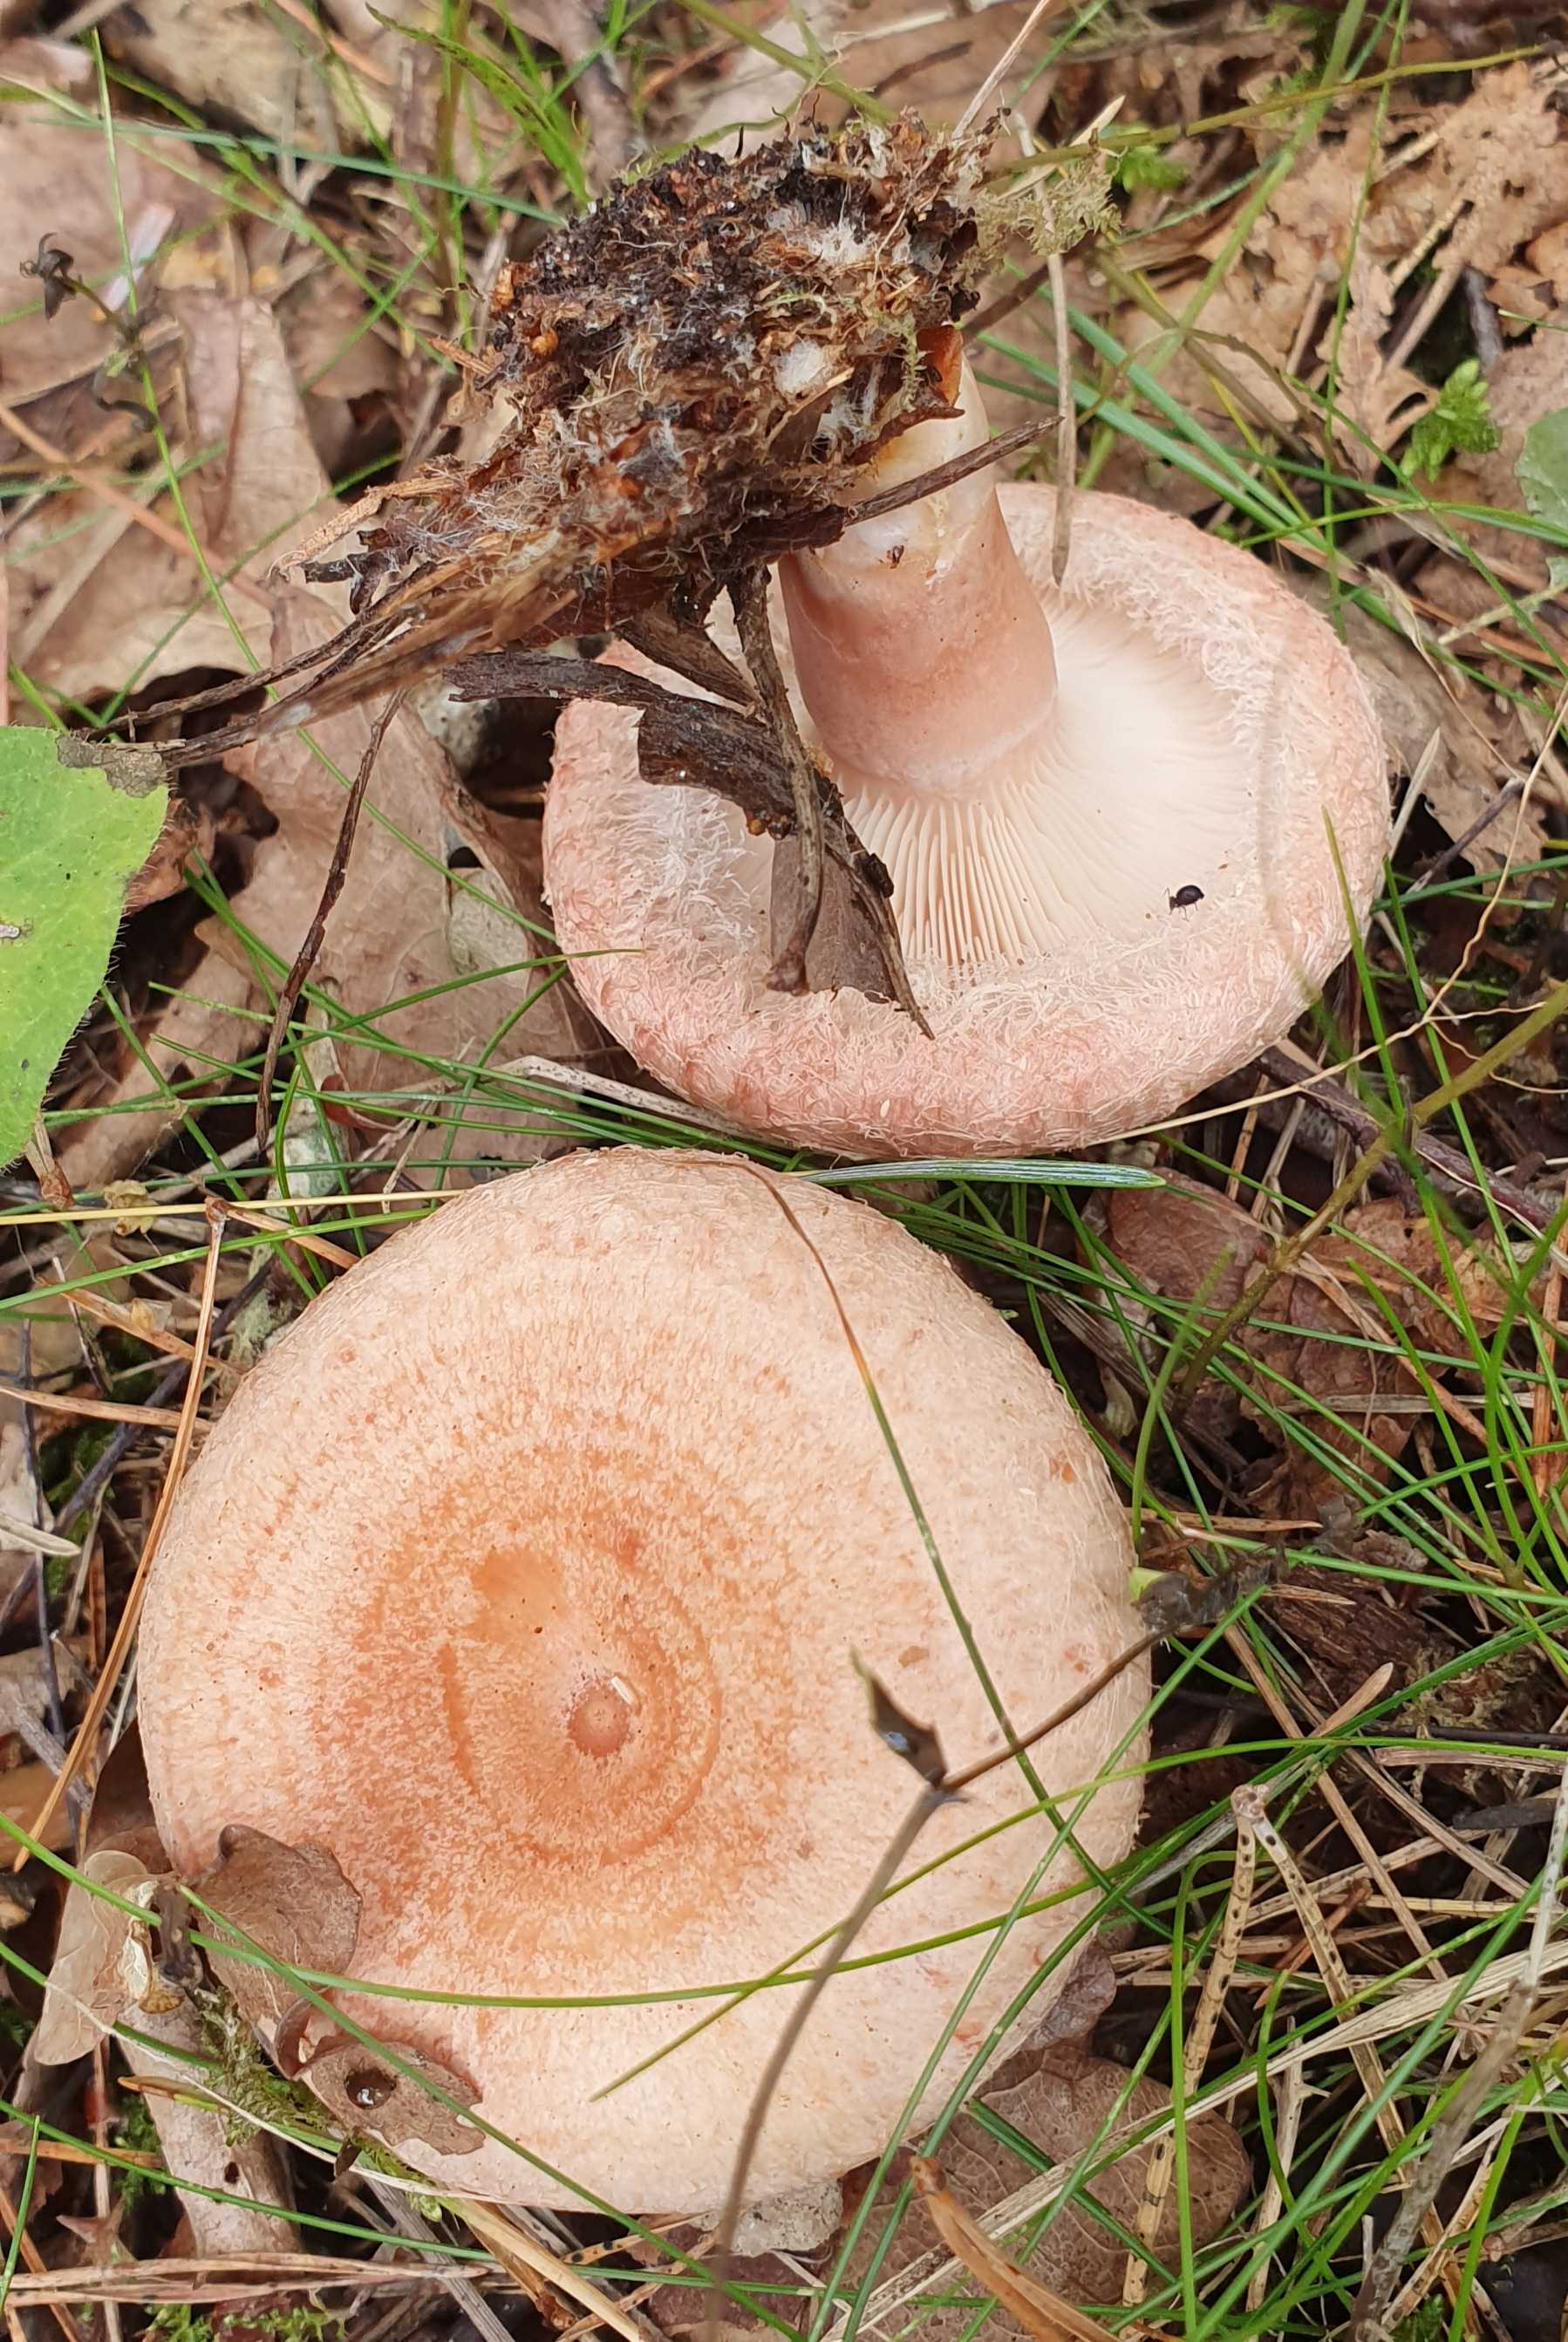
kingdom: Fungi
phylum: Basidiomycota
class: Agaricomycetes
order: Russulales
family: Russulaceae
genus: Lactarius
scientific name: Lactarius torminosus
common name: skægget mælkehat
